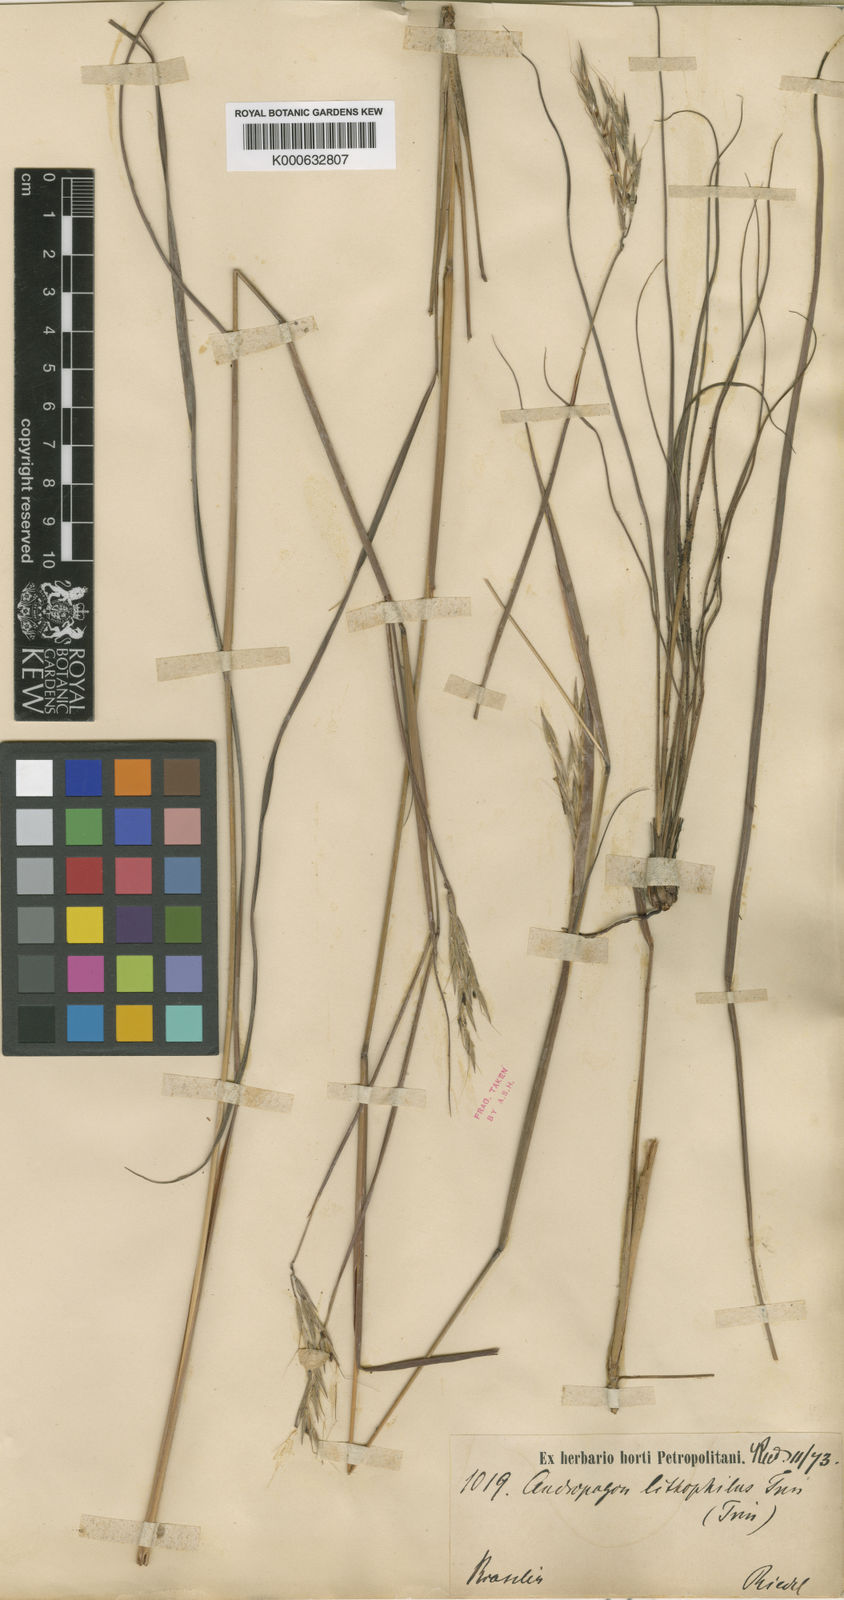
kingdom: Plantae
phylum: Tracheophyta
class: Liliopsida
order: Poales
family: Poaceae
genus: Elymandra
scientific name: Elymandra lithophila
